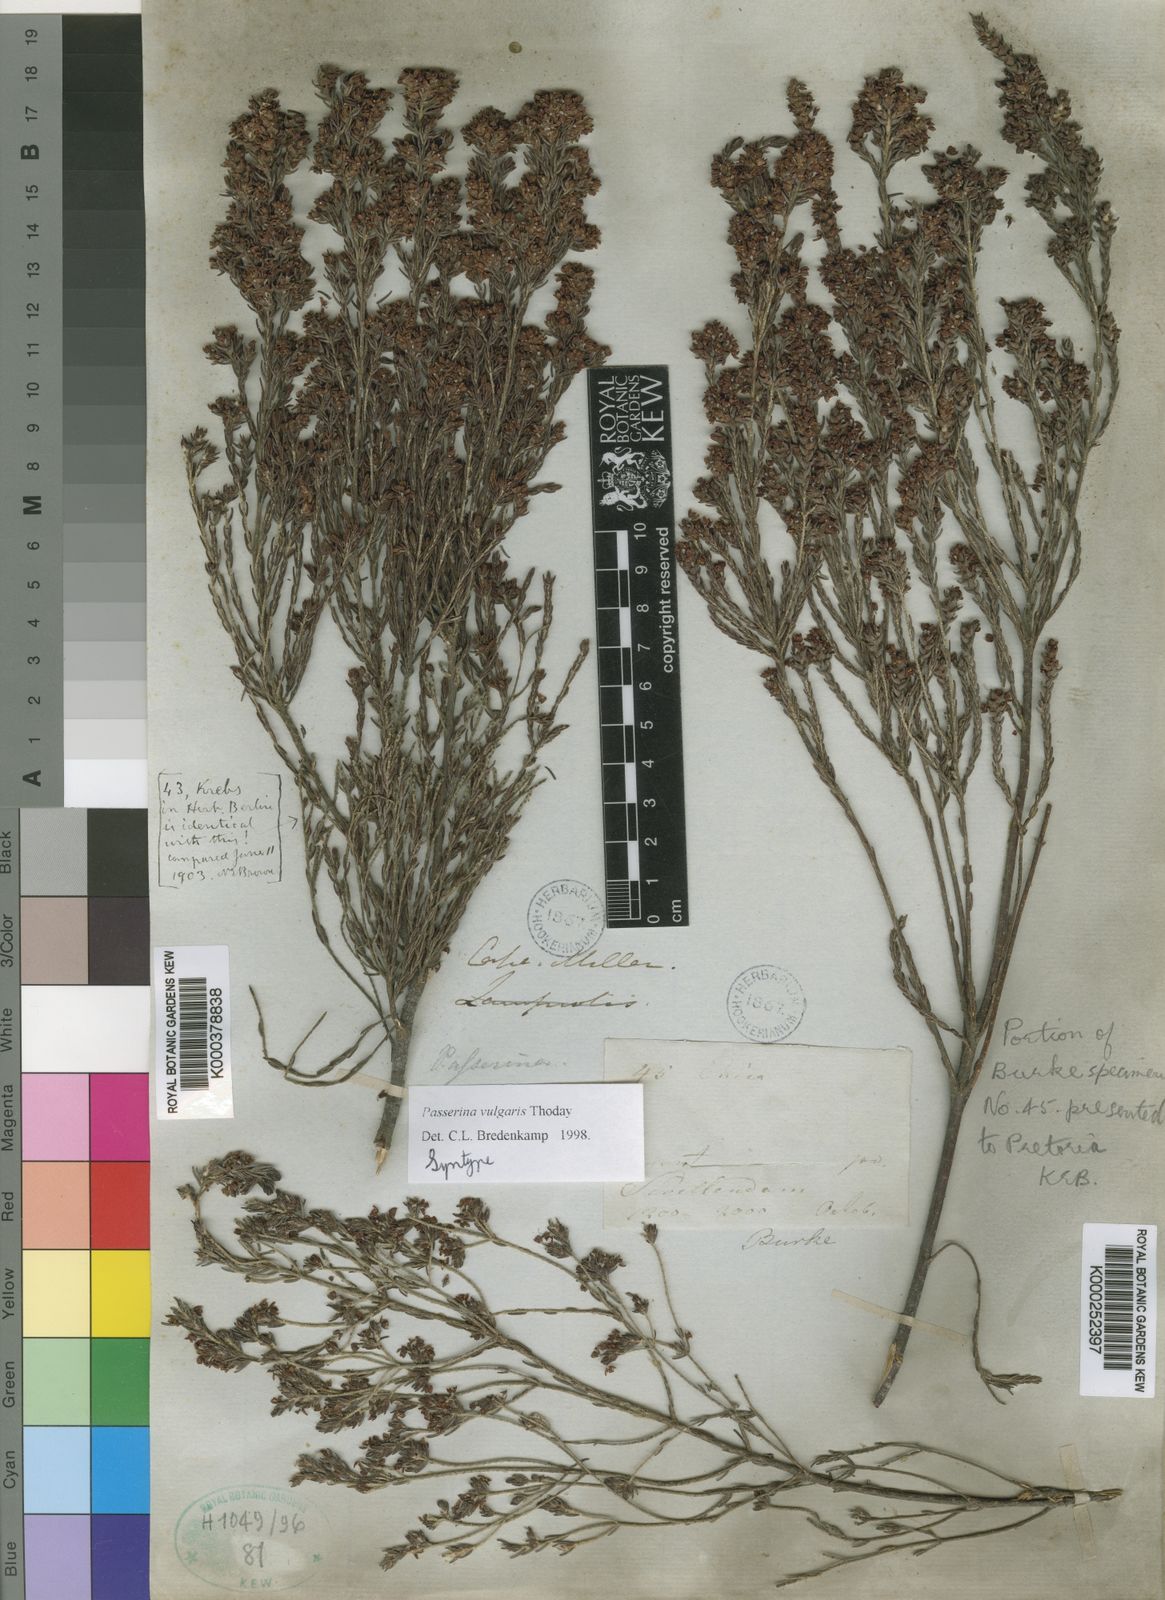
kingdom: Plantae
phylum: Tracheophyta
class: Magnoliopsida
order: Malvales
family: Thymelaeaceae
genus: Passerina
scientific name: Passerina corymbosa
